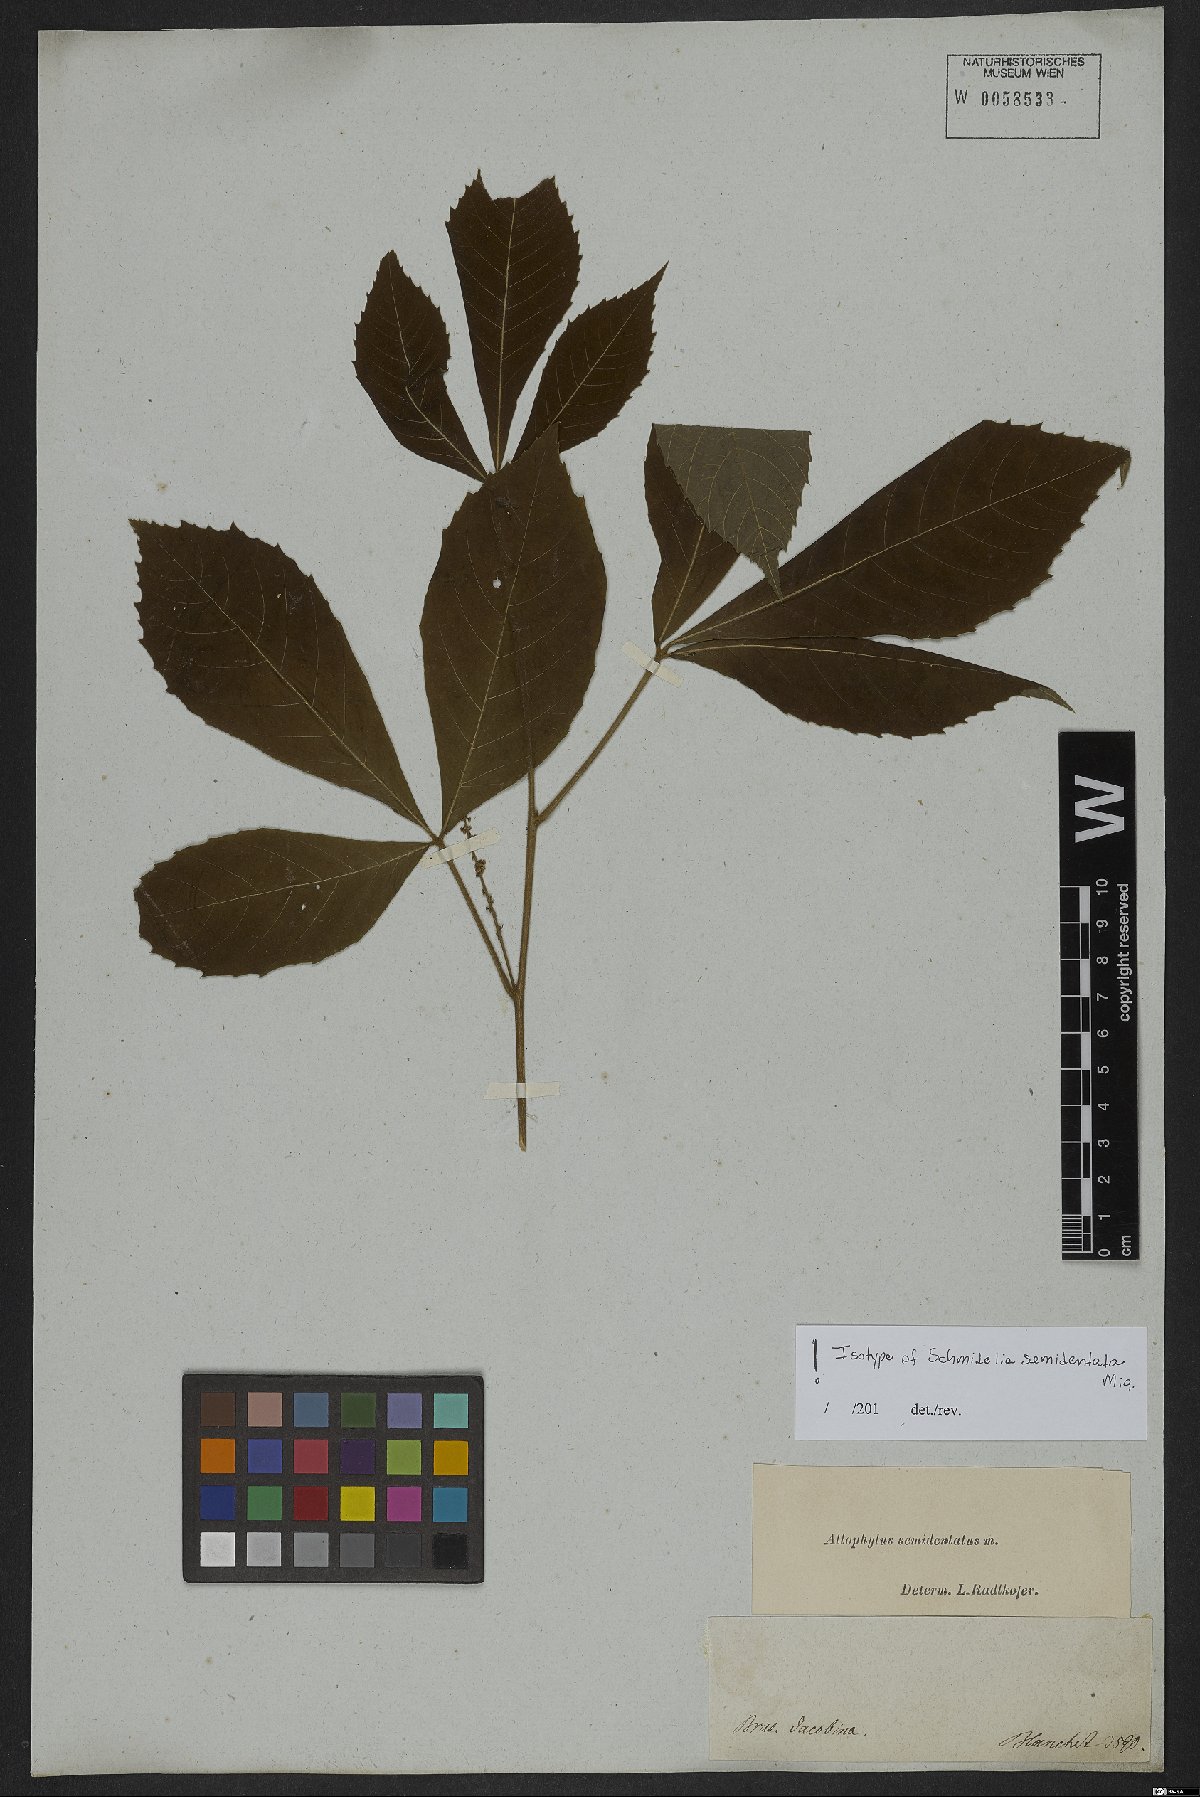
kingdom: Plantae
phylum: Tracheophyta
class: Magnoliopsida
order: Sapindales
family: Sapindaceae
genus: Allophylus
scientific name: Allophylus semidentatus
